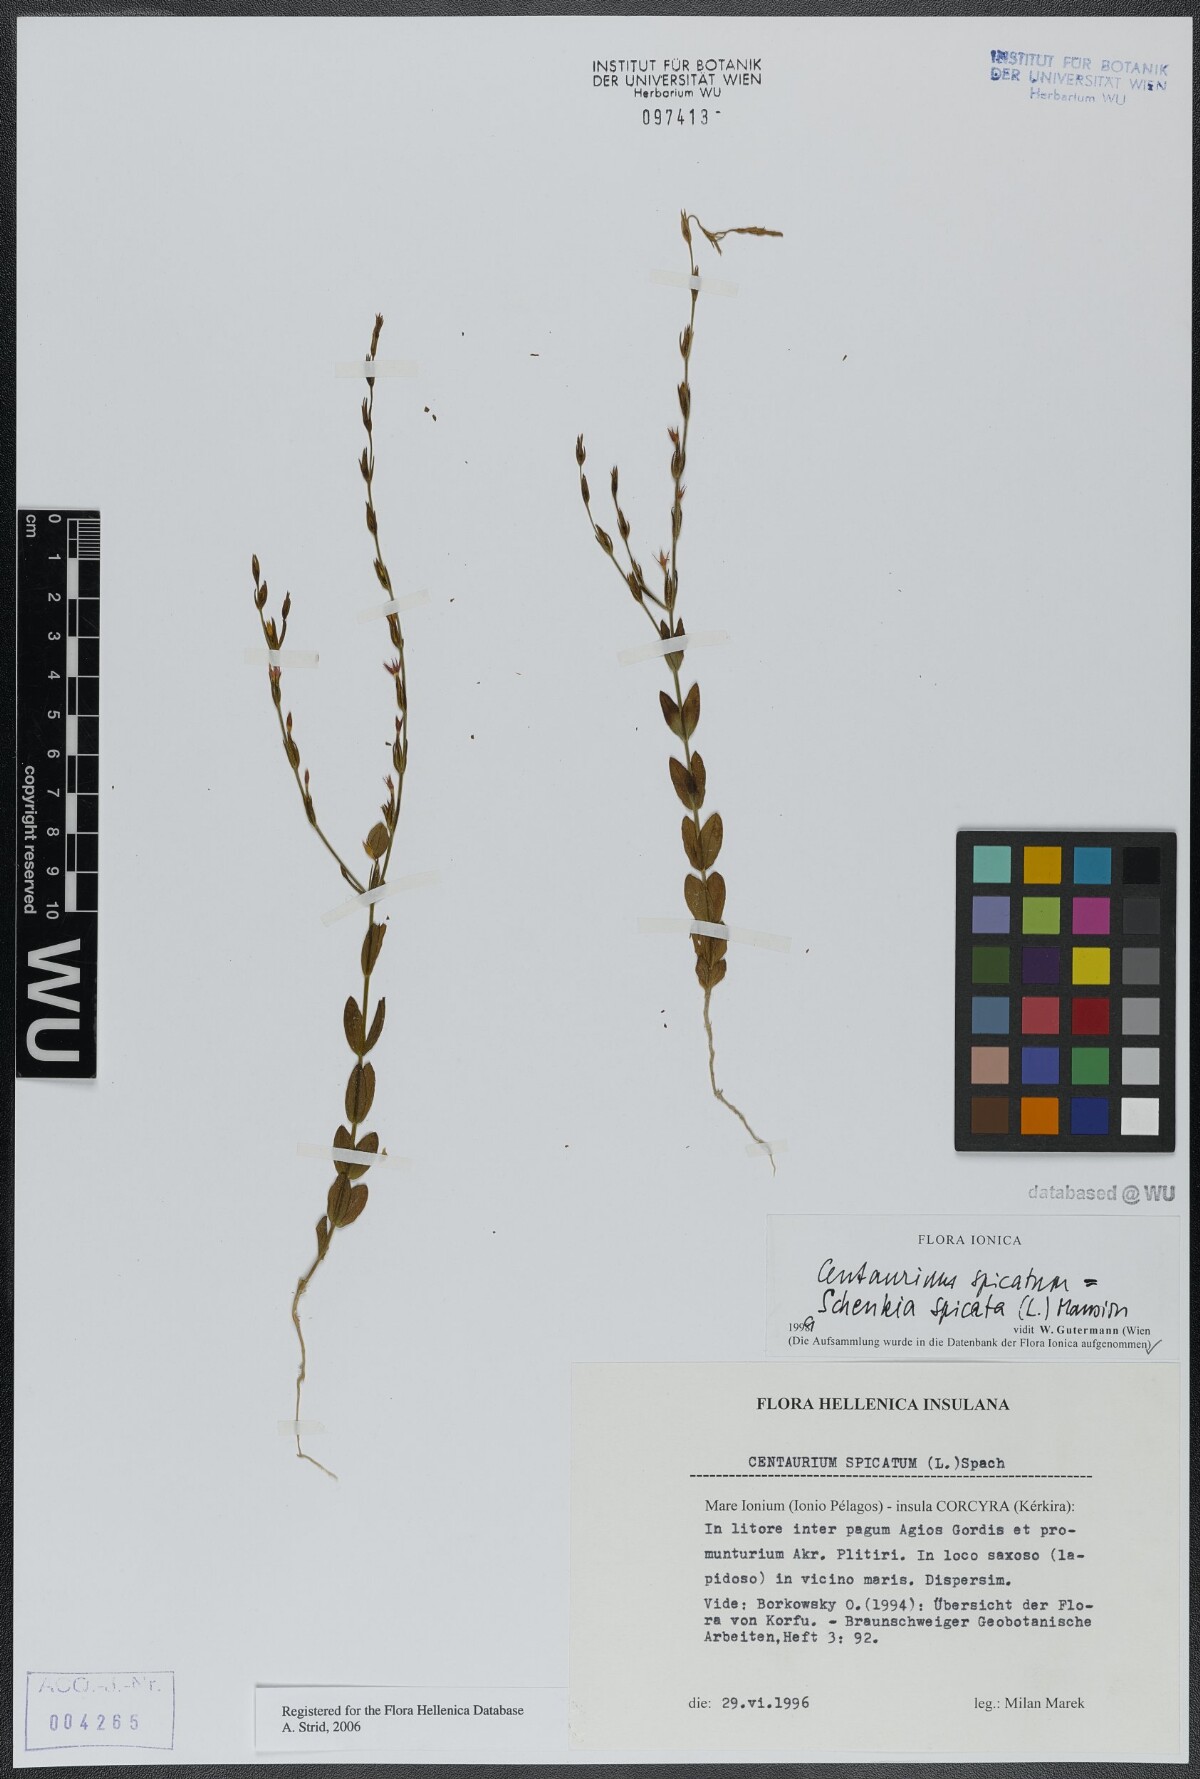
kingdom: Plantae
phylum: Tracheophyta
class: Magnoliopsida
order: Gentianales
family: Gentianaceae
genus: Schenkia
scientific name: Schenkia spicata
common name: Spiked centaury
